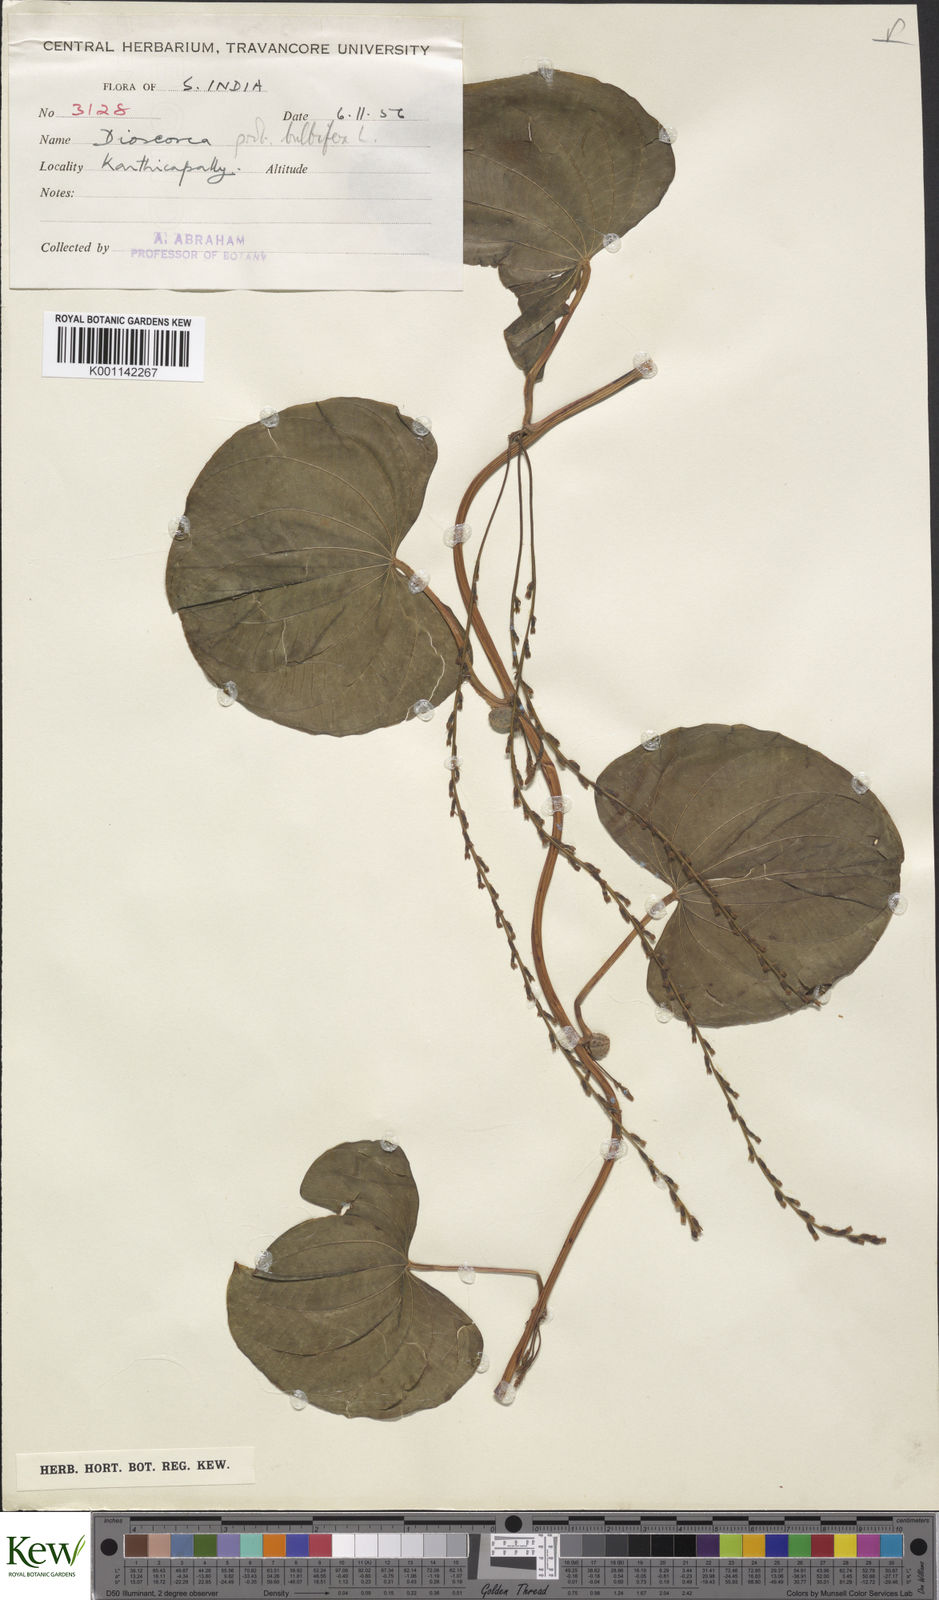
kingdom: Plantae
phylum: Tracheophyta
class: Liliopsida
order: Dioscoreales
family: Dioscoreaceae
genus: Dioscorea
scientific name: Dioscorea bulbifera
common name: Air yam
